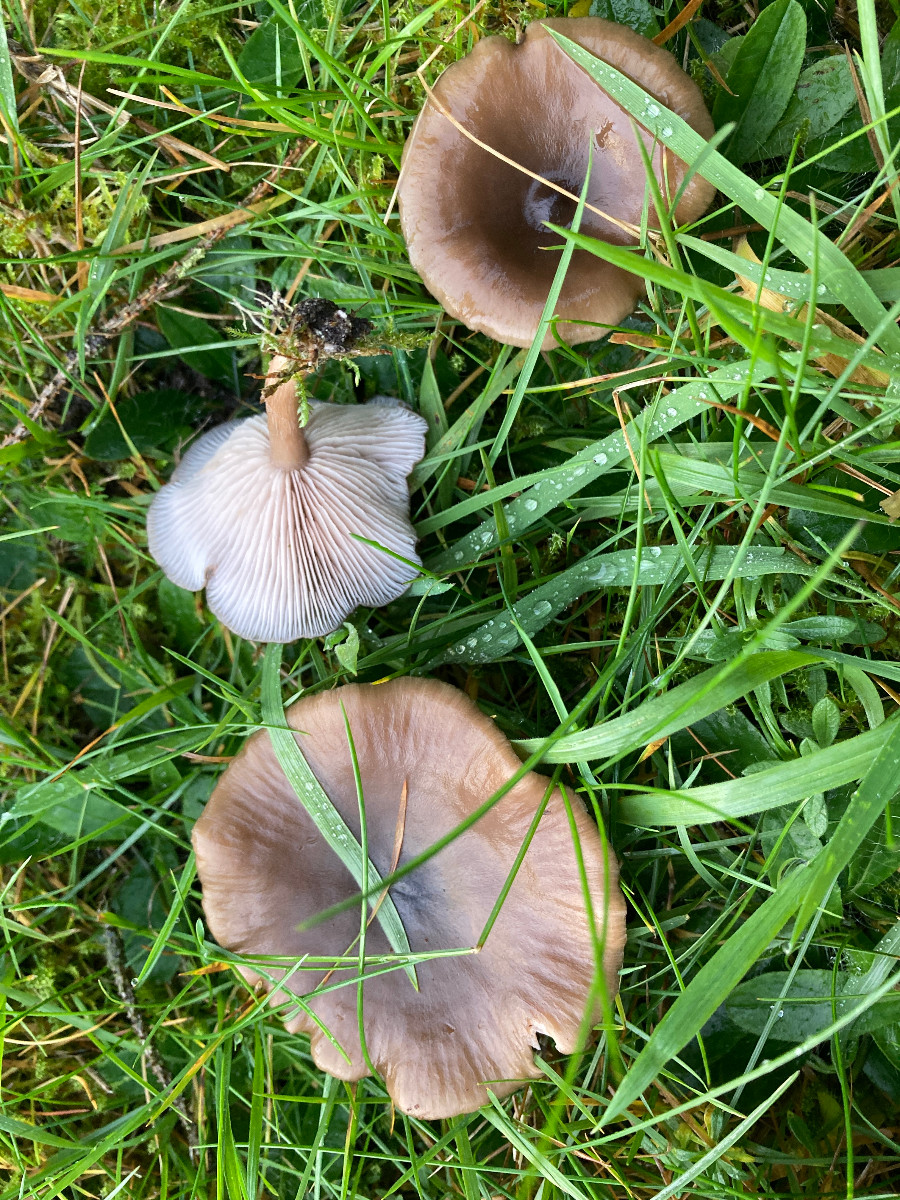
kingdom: Fungi
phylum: Basidiomycota
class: Agaricomycetes
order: Agaricales
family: Tricholomataceae
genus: Lepista
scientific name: Lepista sordida
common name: spinkel hekseringshat
